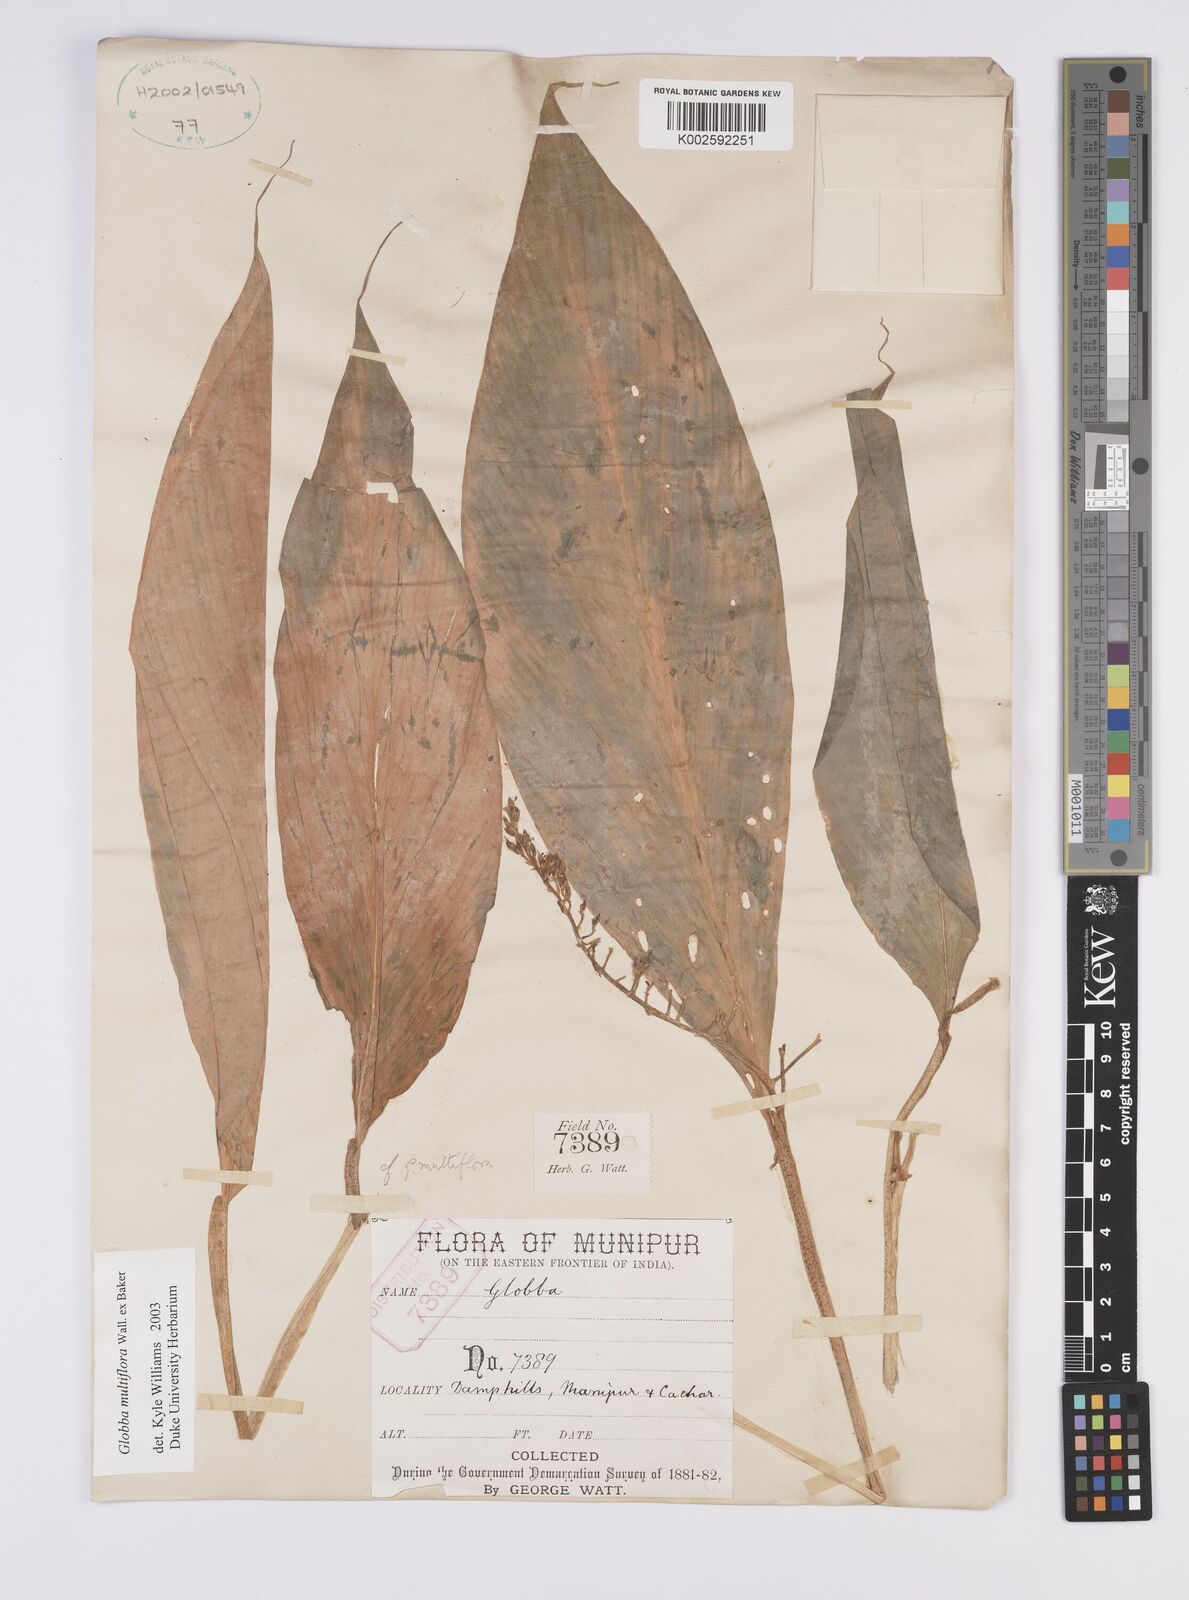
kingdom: Plantae
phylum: Tracheophyta
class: Liliopsida
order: Zingiberales
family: Zingiberaceae
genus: Globba
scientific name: Globba multiflora
